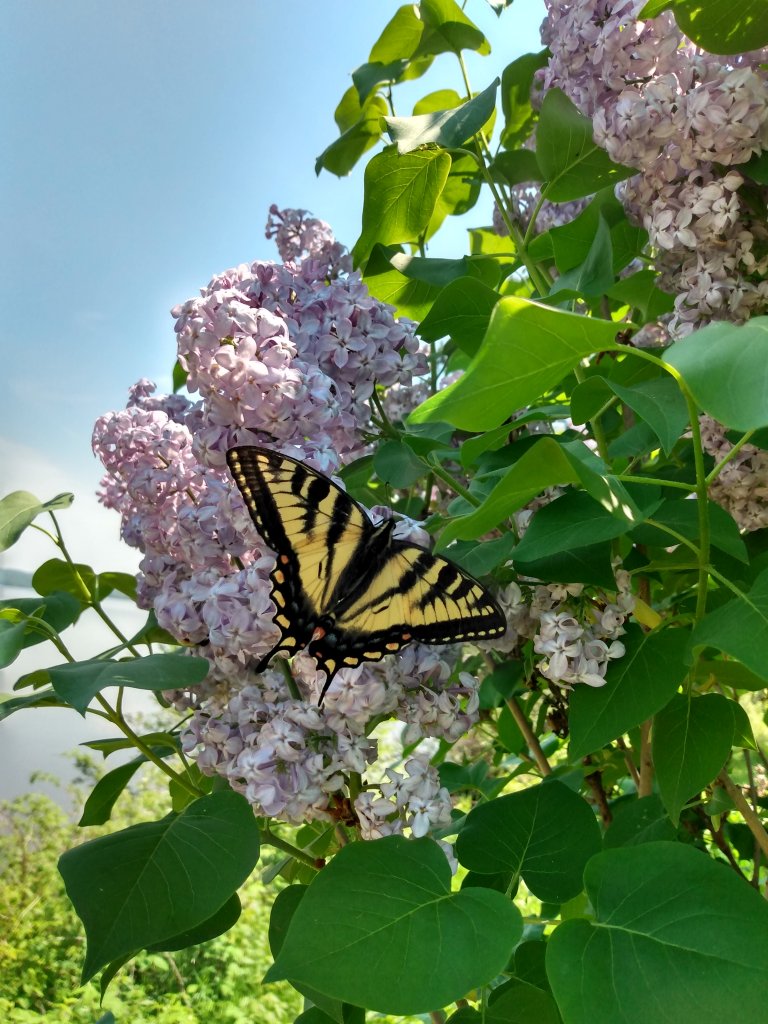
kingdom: Animalia
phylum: Arthropoda
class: Insecta
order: Lepidoptera
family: Papilionidae
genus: Pterourus
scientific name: Pterourus canadensis
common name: Canadian Tiger Swallowtail
